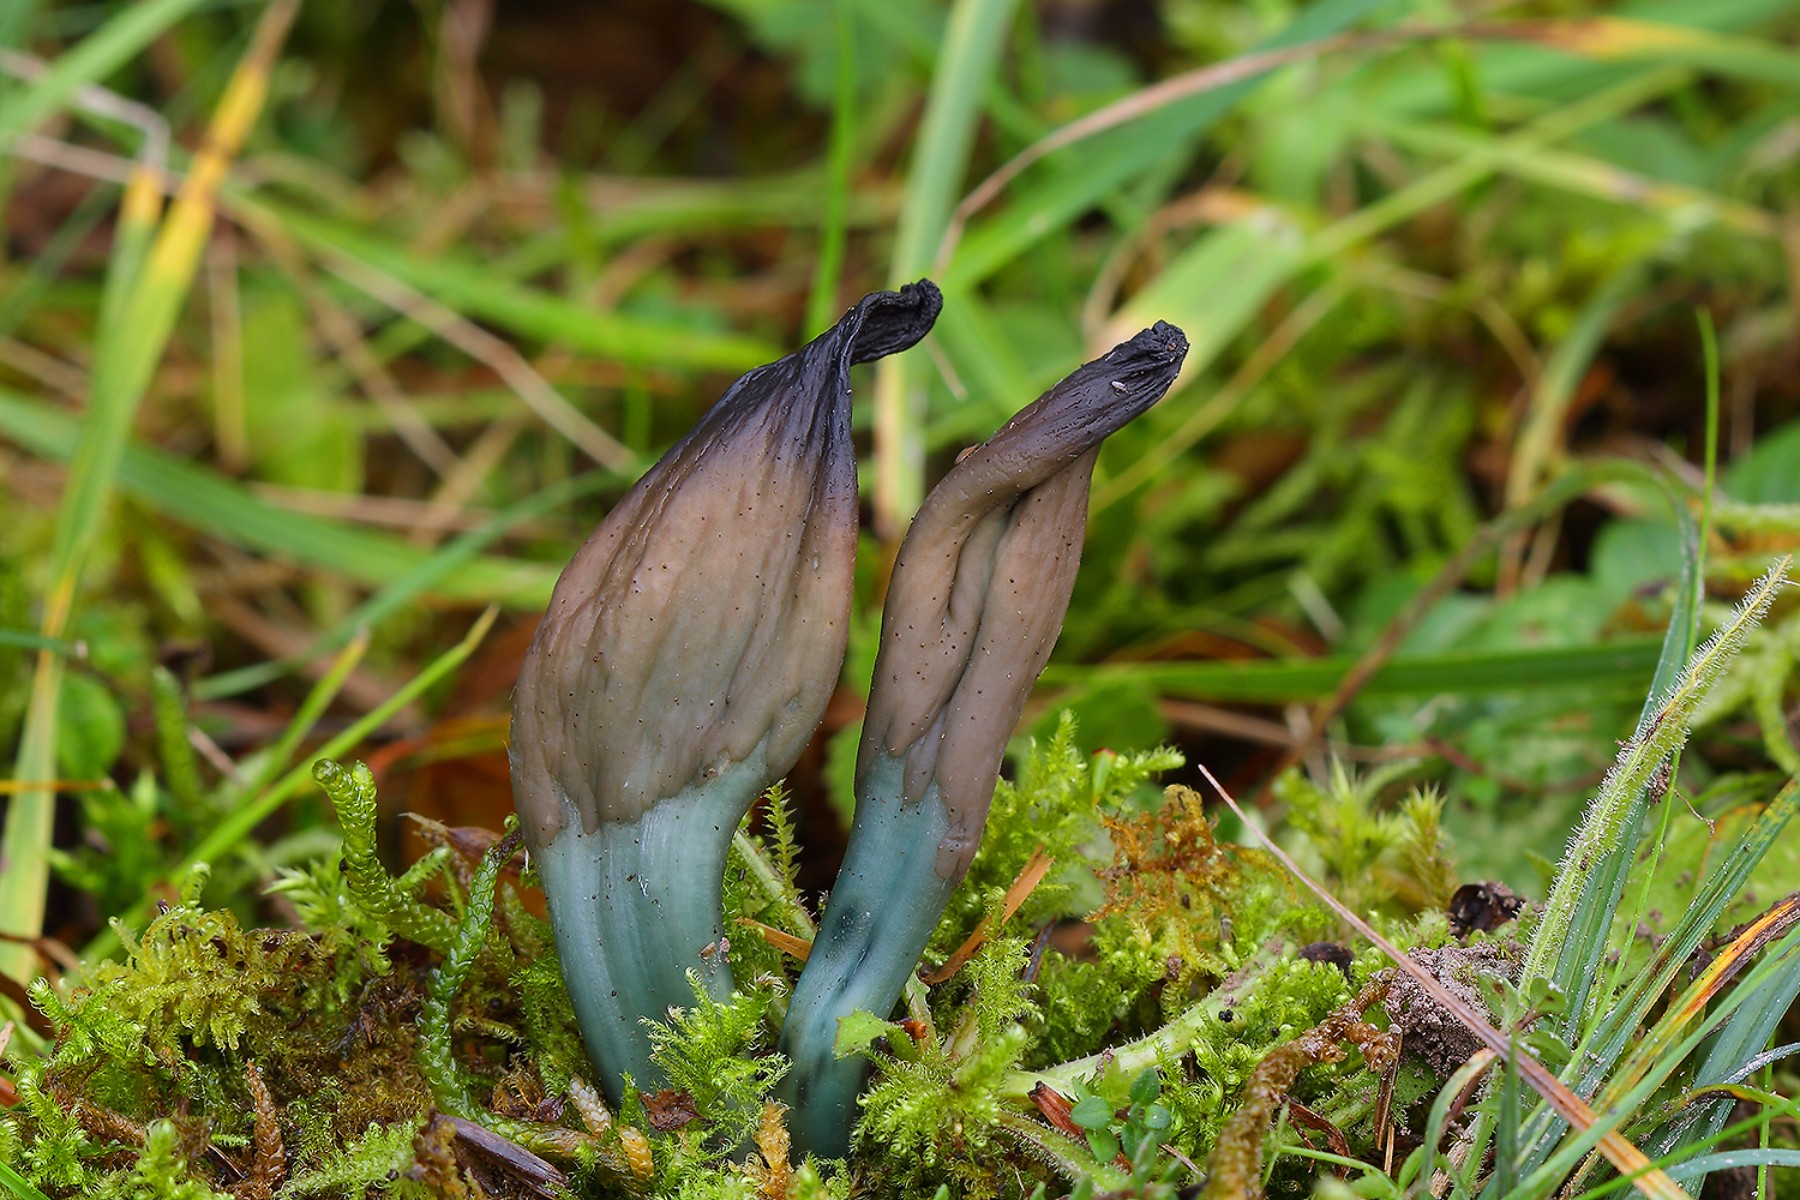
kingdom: Fungi
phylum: Ascomycota
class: Leotiomycetes
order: Leotiales
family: Leotiaceae
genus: Microglossum
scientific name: Microglossum tenebrosum
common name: turkis-farvetunge
